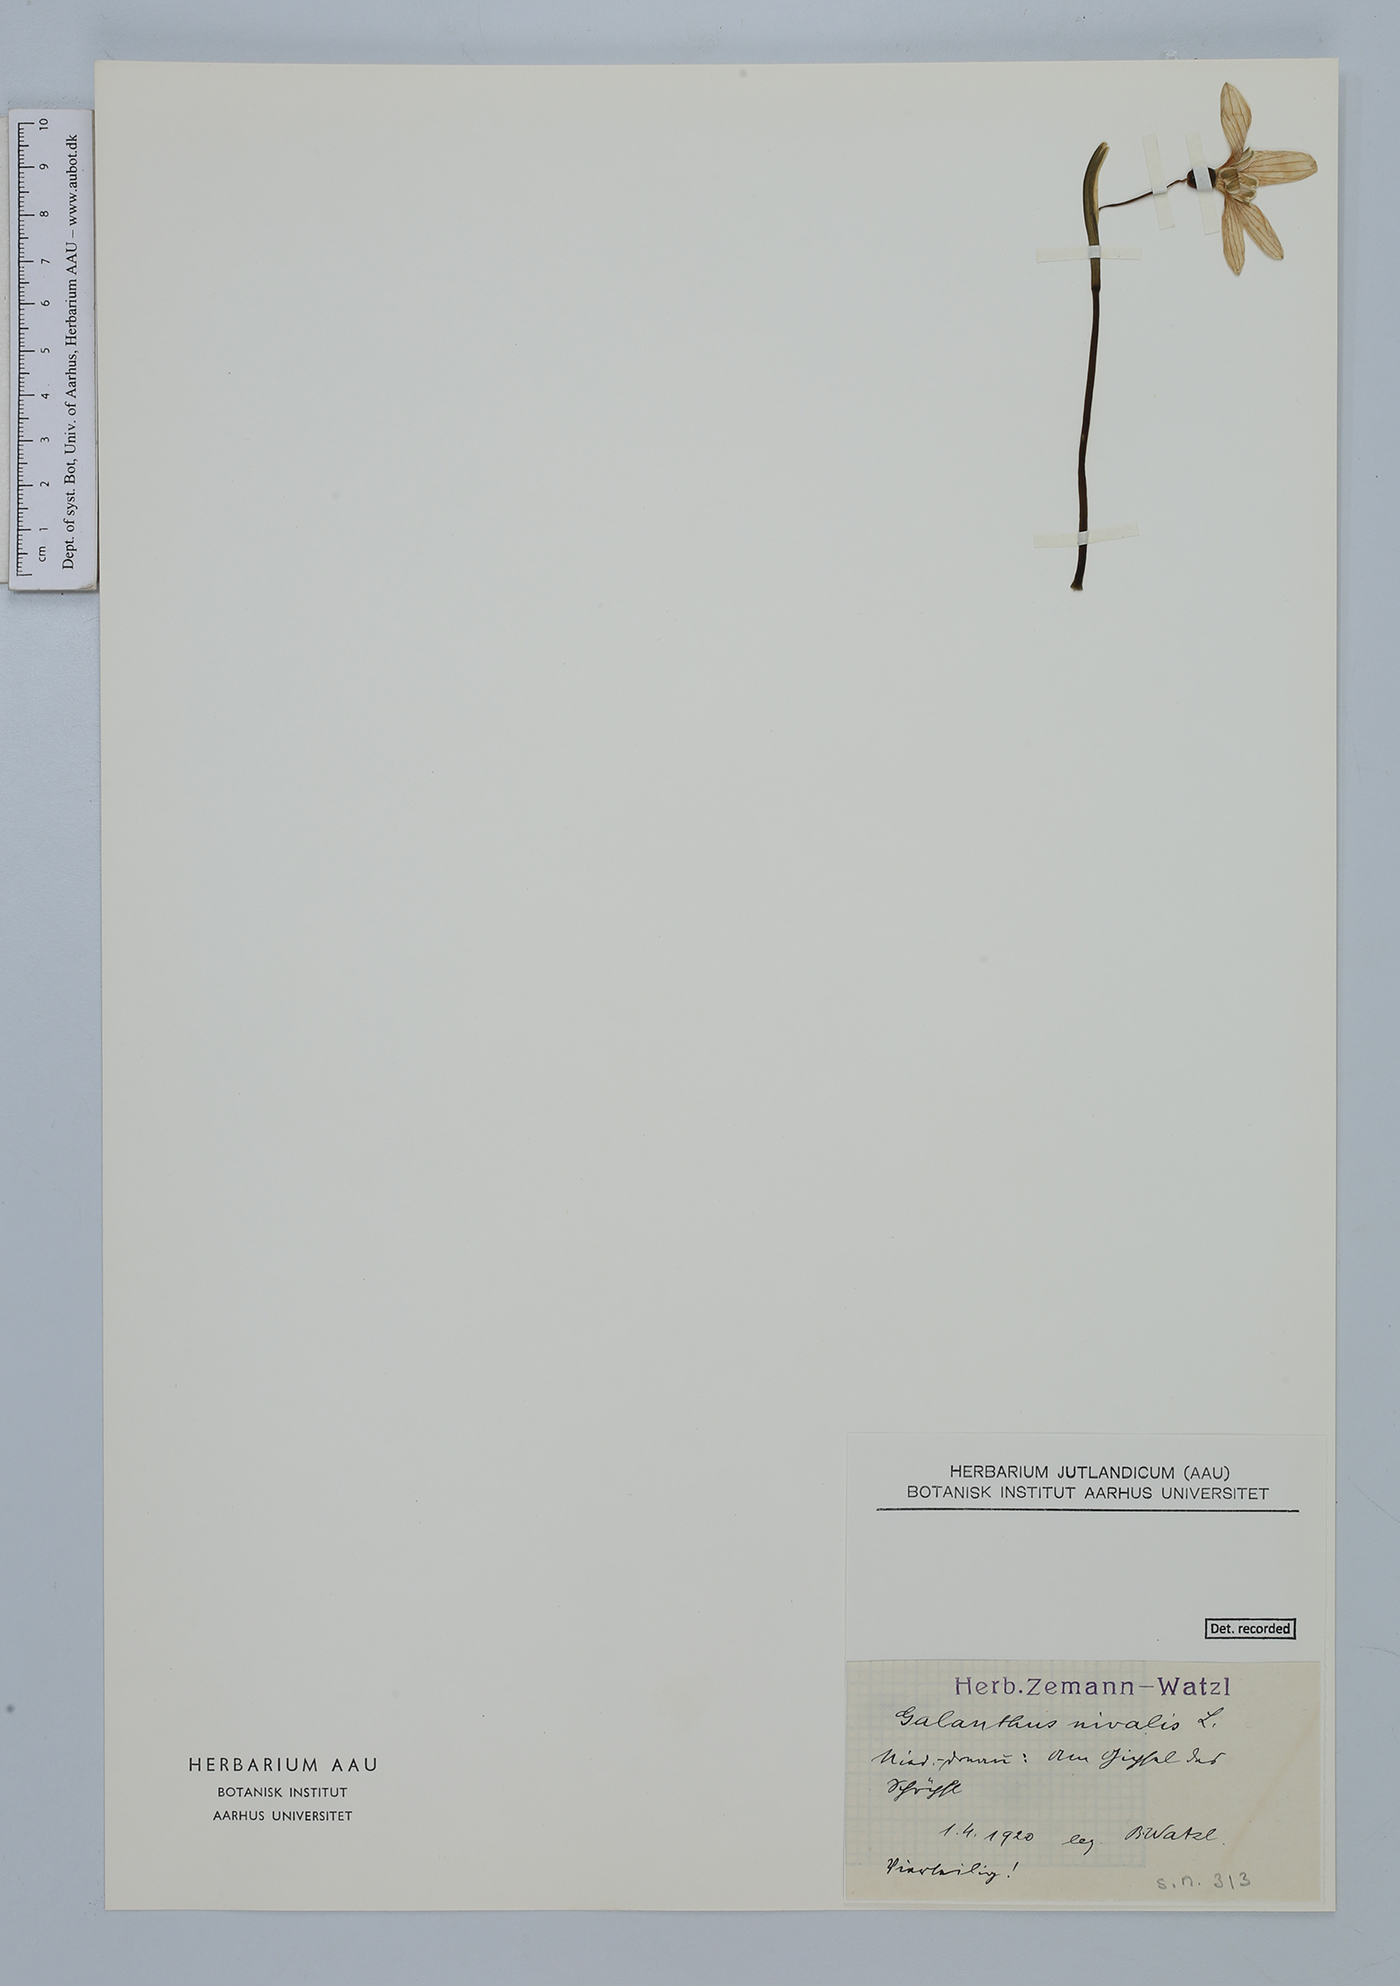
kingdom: Plantae
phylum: Tracheophyta
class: Liliopsida
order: Asparagales
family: Amaryllidaceae
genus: Galanthus
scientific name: Galanthus nivalis
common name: Snowdrop
